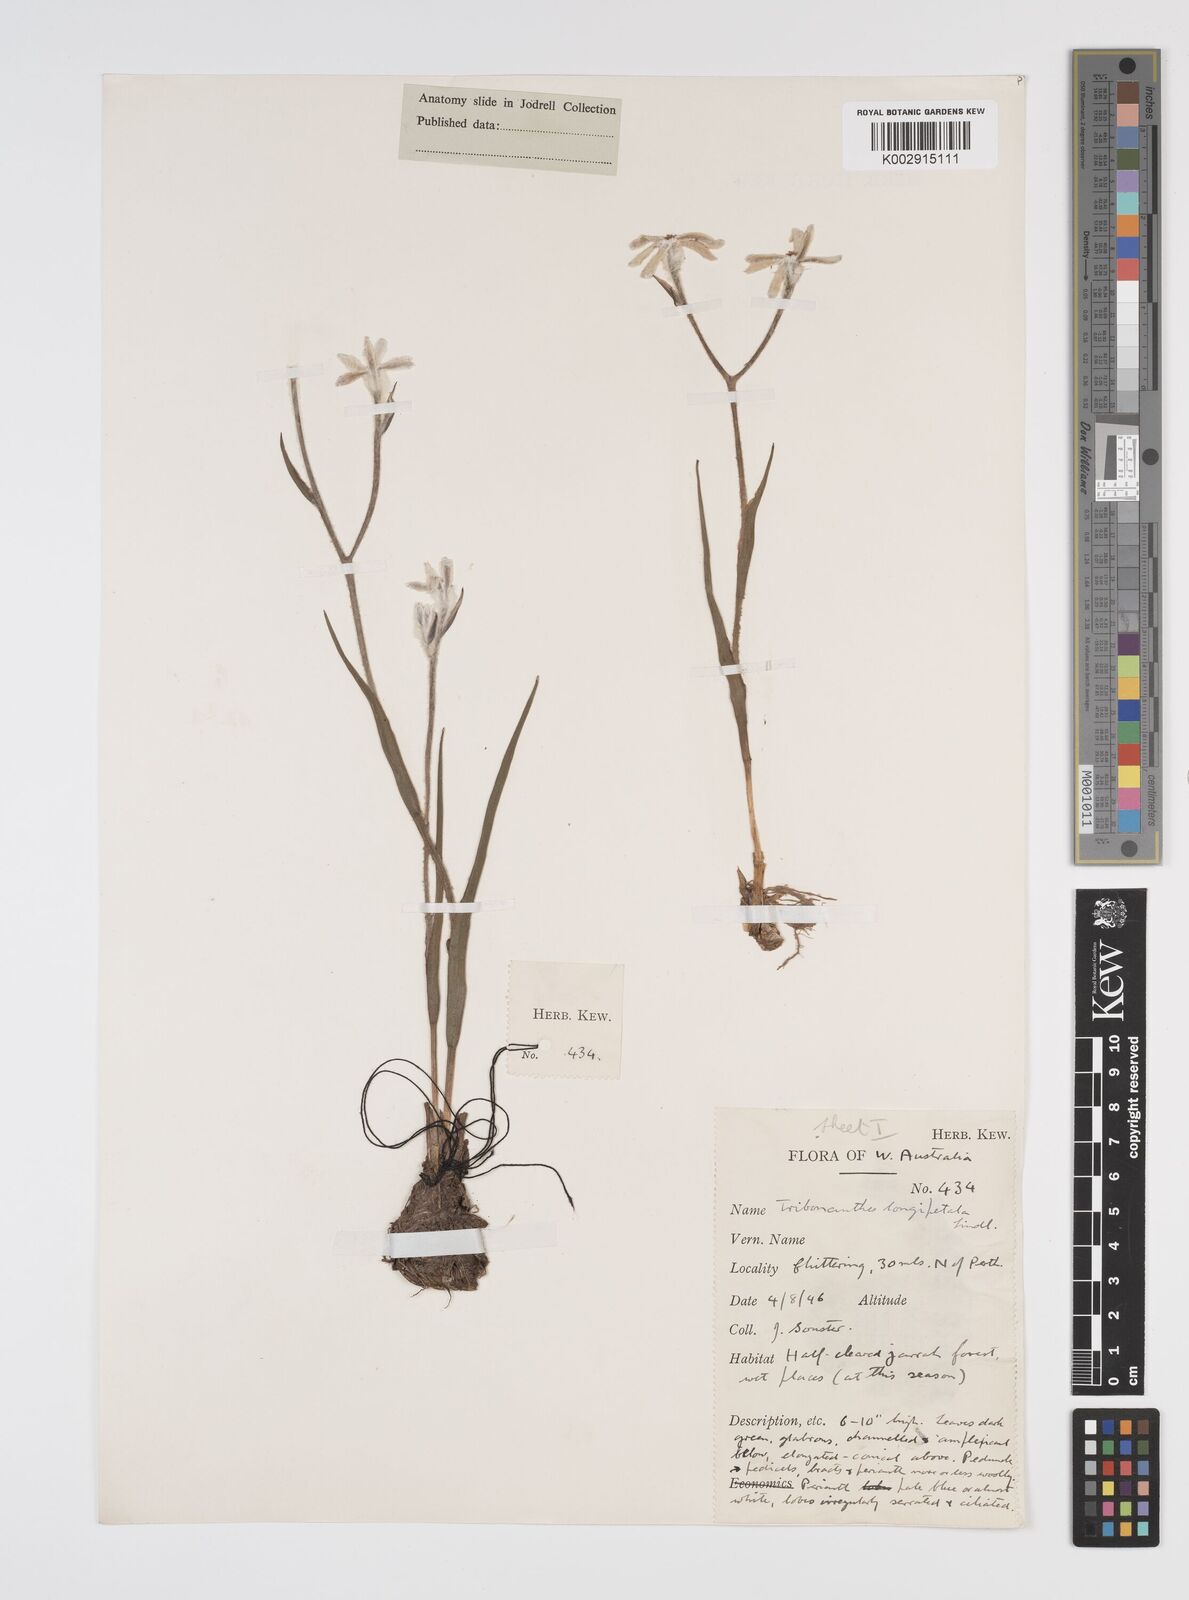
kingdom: Plantae
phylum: Tracheophyta
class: Liliopsida
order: Commelinales
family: Haemodoraceae
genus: Tribonanthes
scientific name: Tribonanthes longipetala
